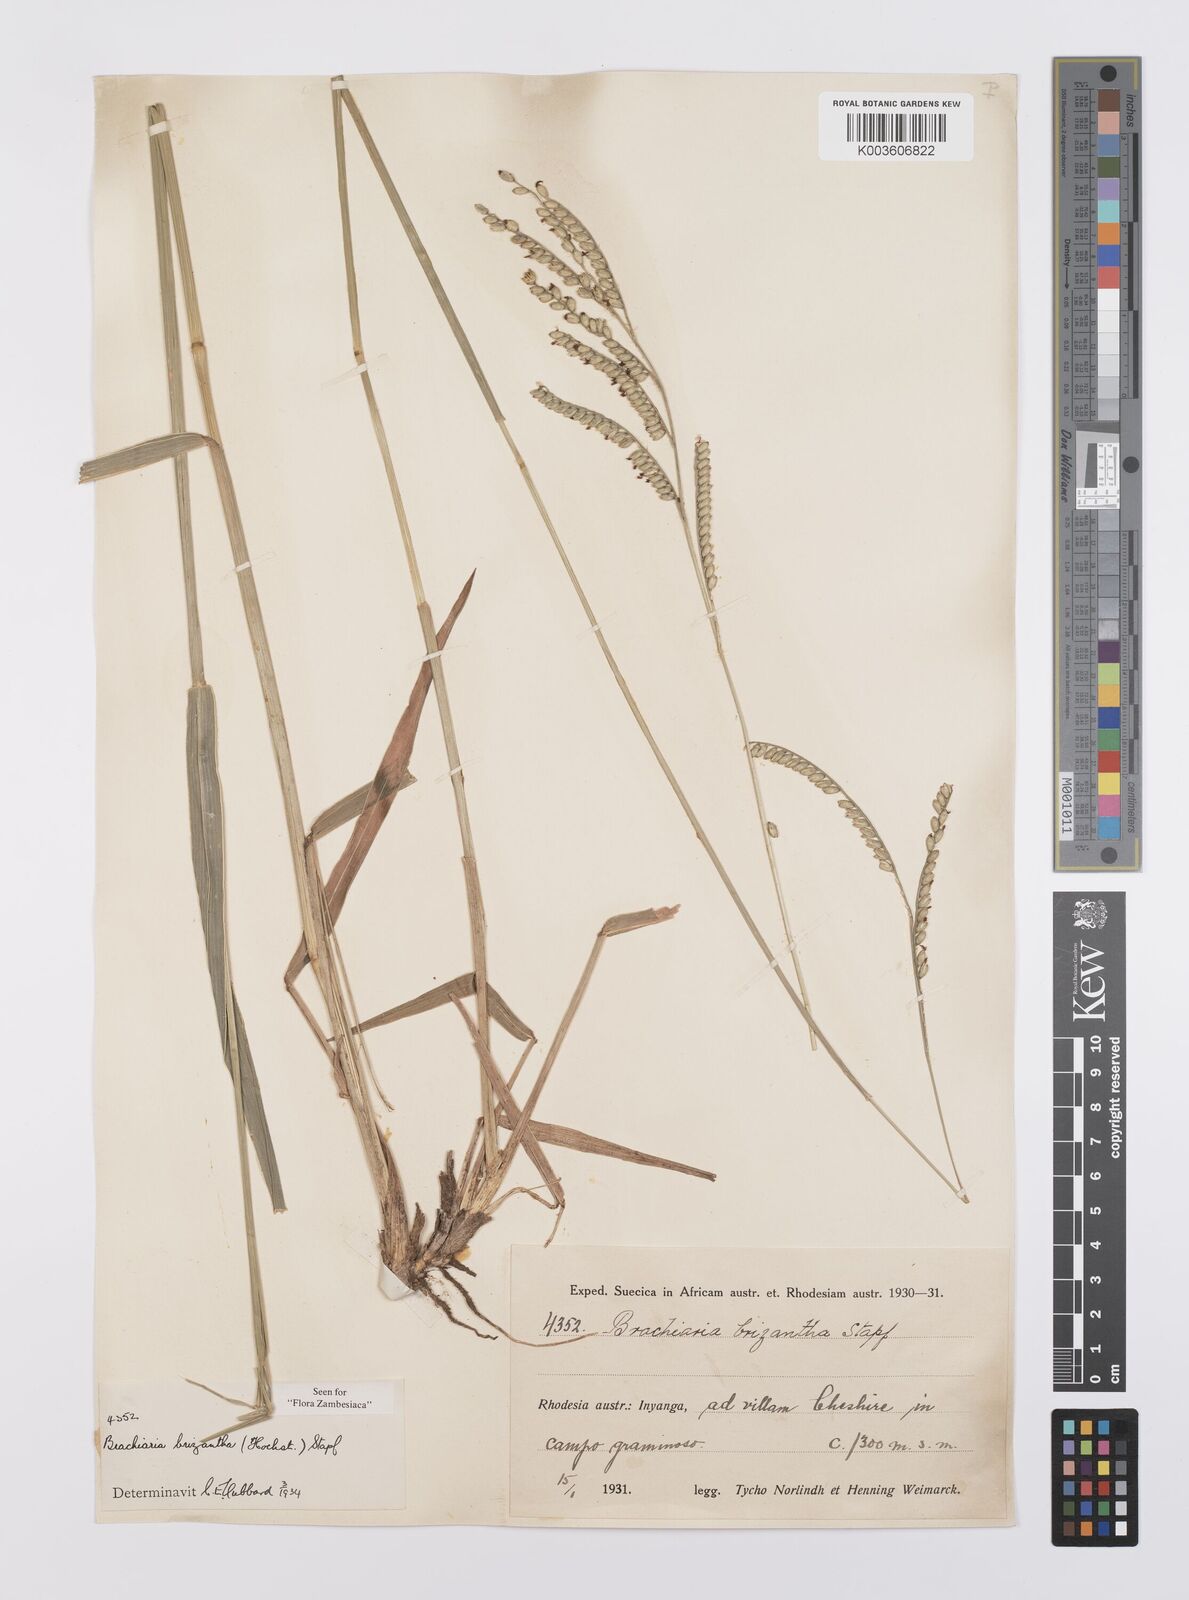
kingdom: Plantae
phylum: Tracheophyta
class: Liliopsida
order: Poales
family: Poaceae
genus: Urochloa
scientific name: Urochloa brizantha
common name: Palisade signalgrass
